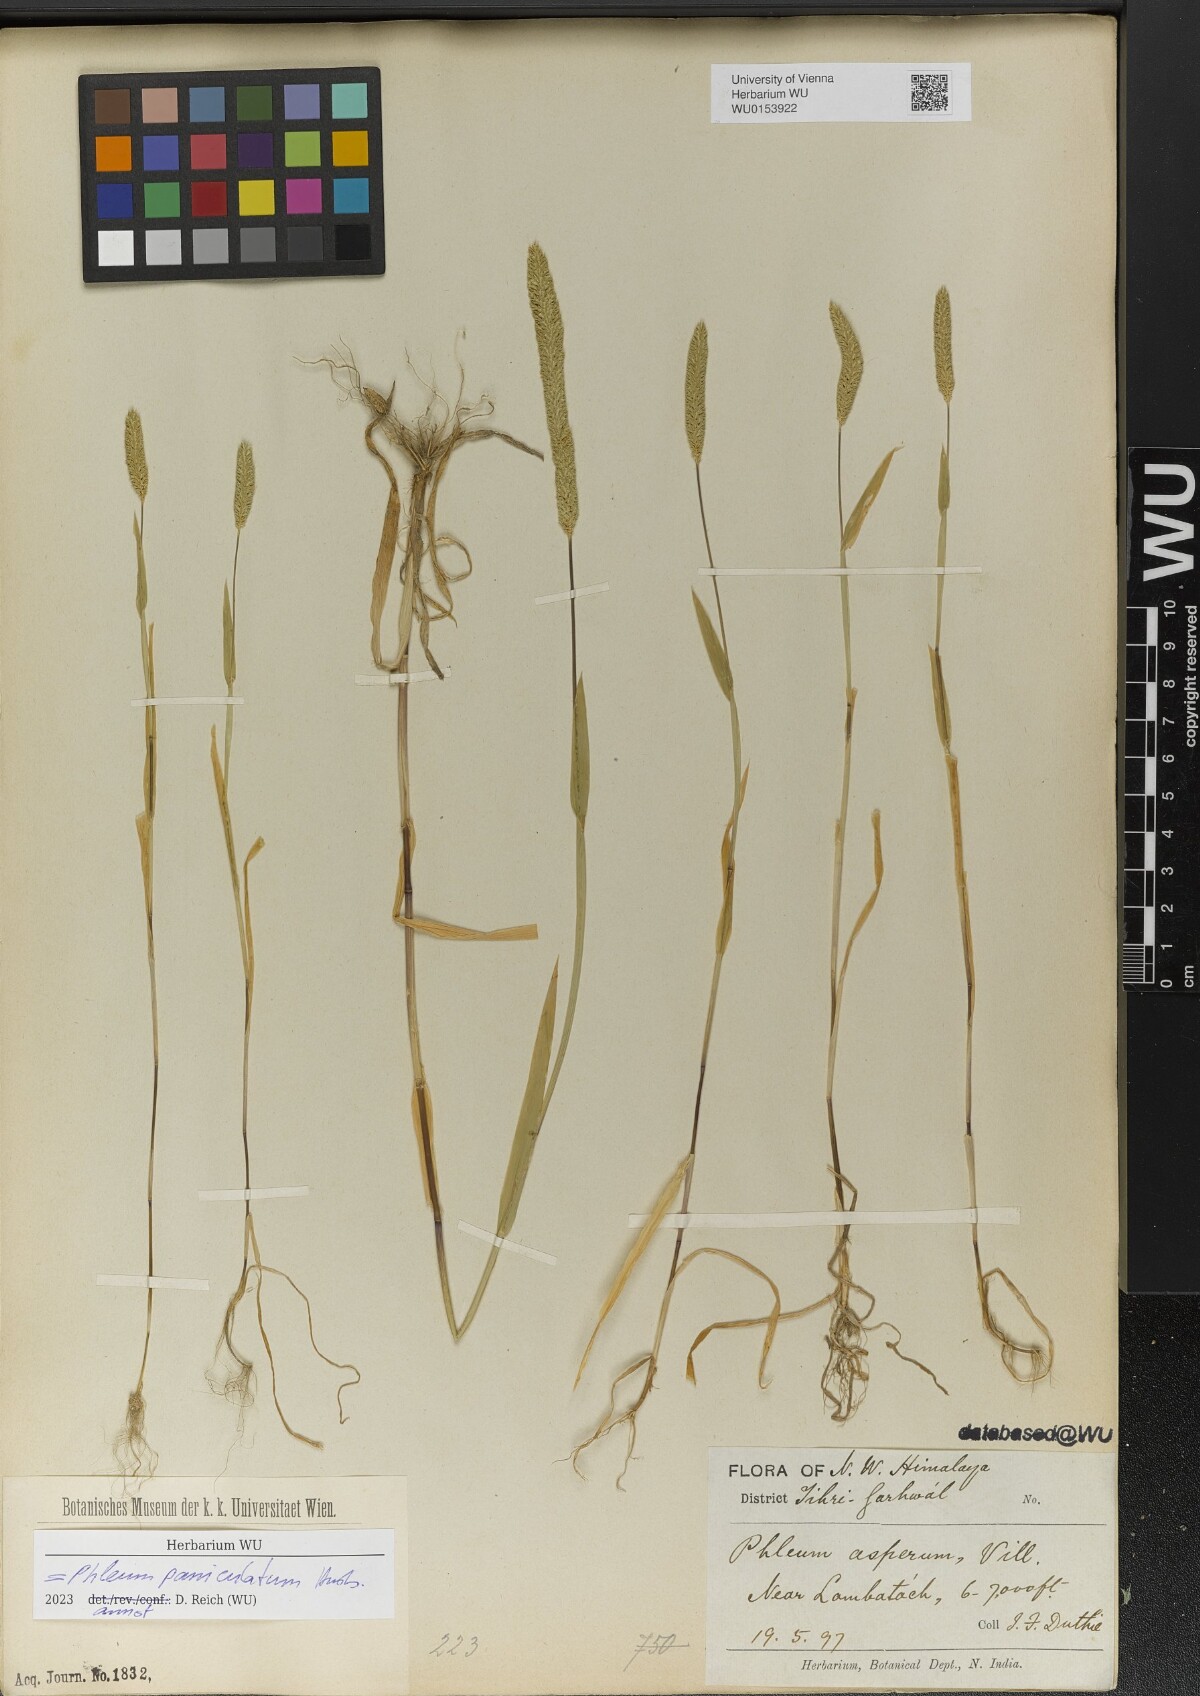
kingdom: Plantae
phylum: Tracheophyta
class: Liliopsida
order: Poales
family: Poaceae
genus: Phleum
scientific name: Phleum paniculatum
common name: British timothy
